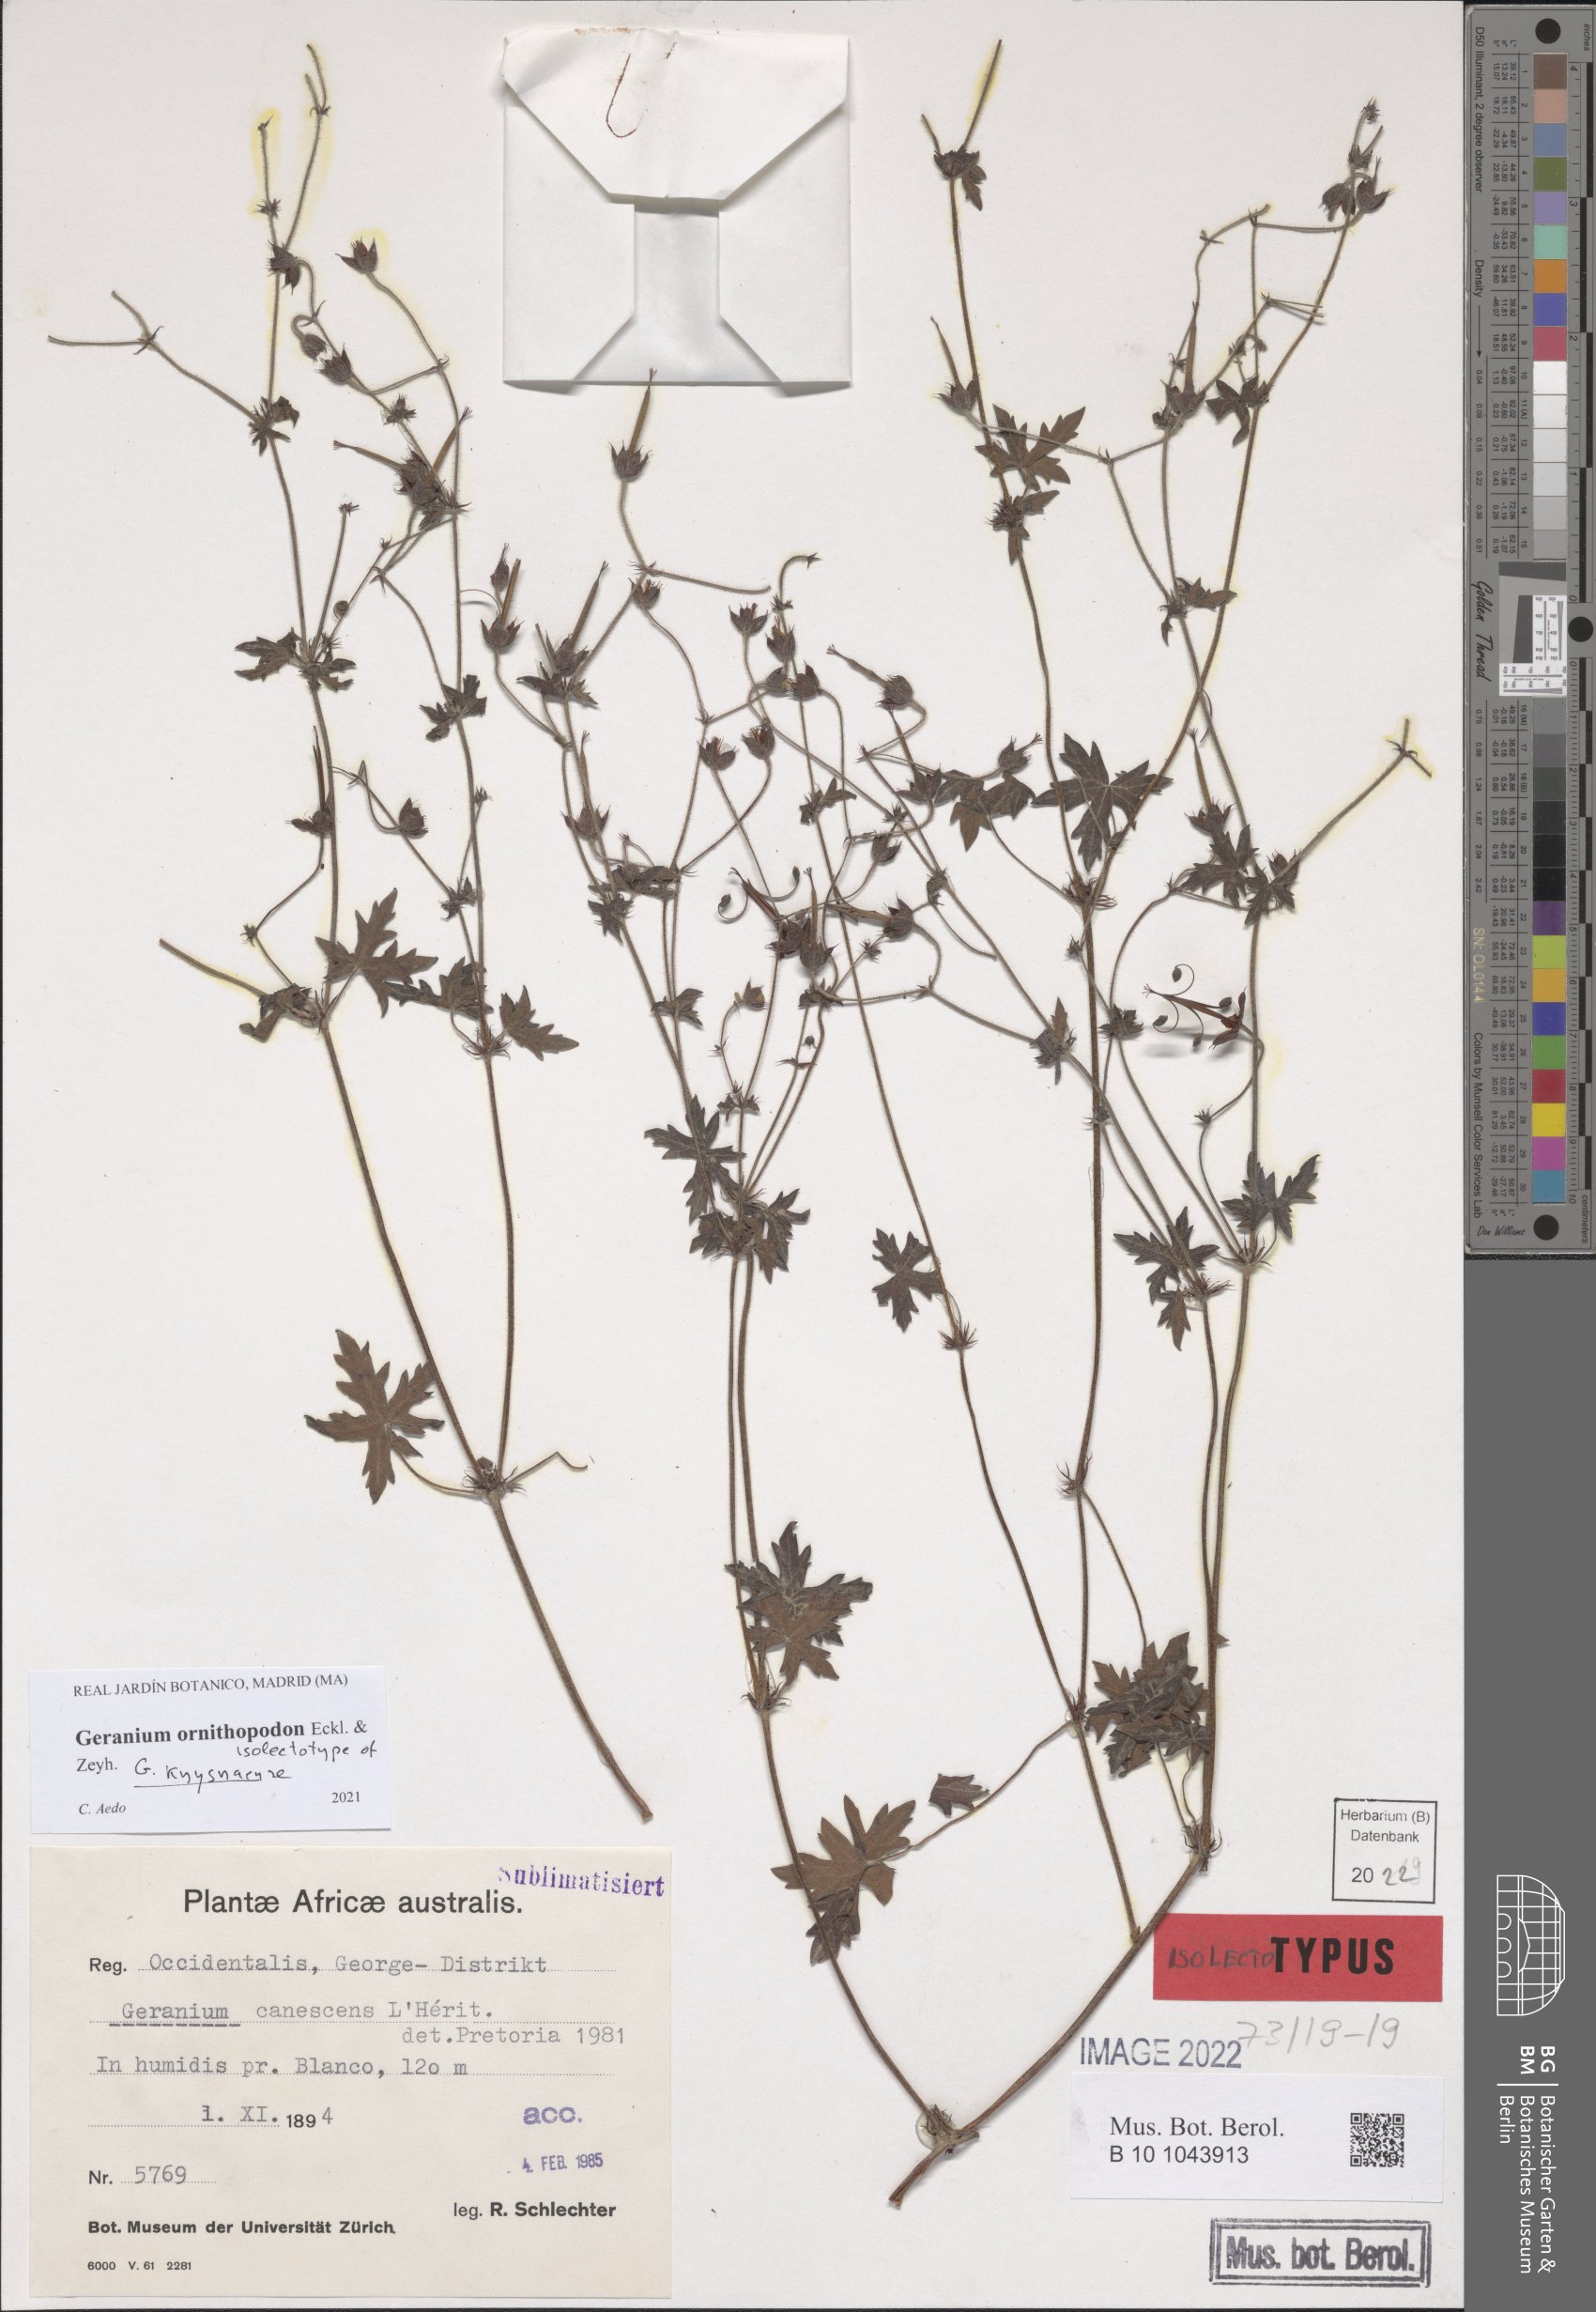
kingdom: Plantae
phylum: Tracheophyta
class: Magnoliopsida
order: Geraniales
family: Geraniaceae
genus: Geranium
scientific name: Geranium ornithopodon
